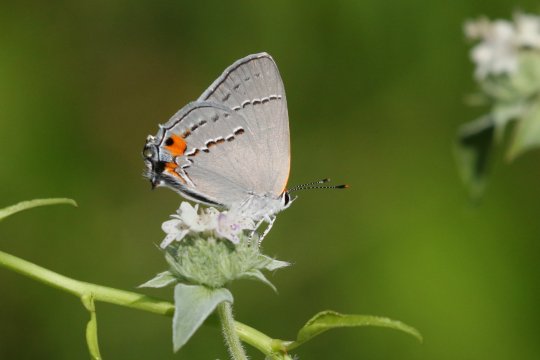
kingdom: Animalia
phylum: Arthropoda
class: Insecta
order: Lepidoptera
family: Lycaenidae
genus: Strymon
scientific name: Strymon melinus
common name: Gray Hairstreak
